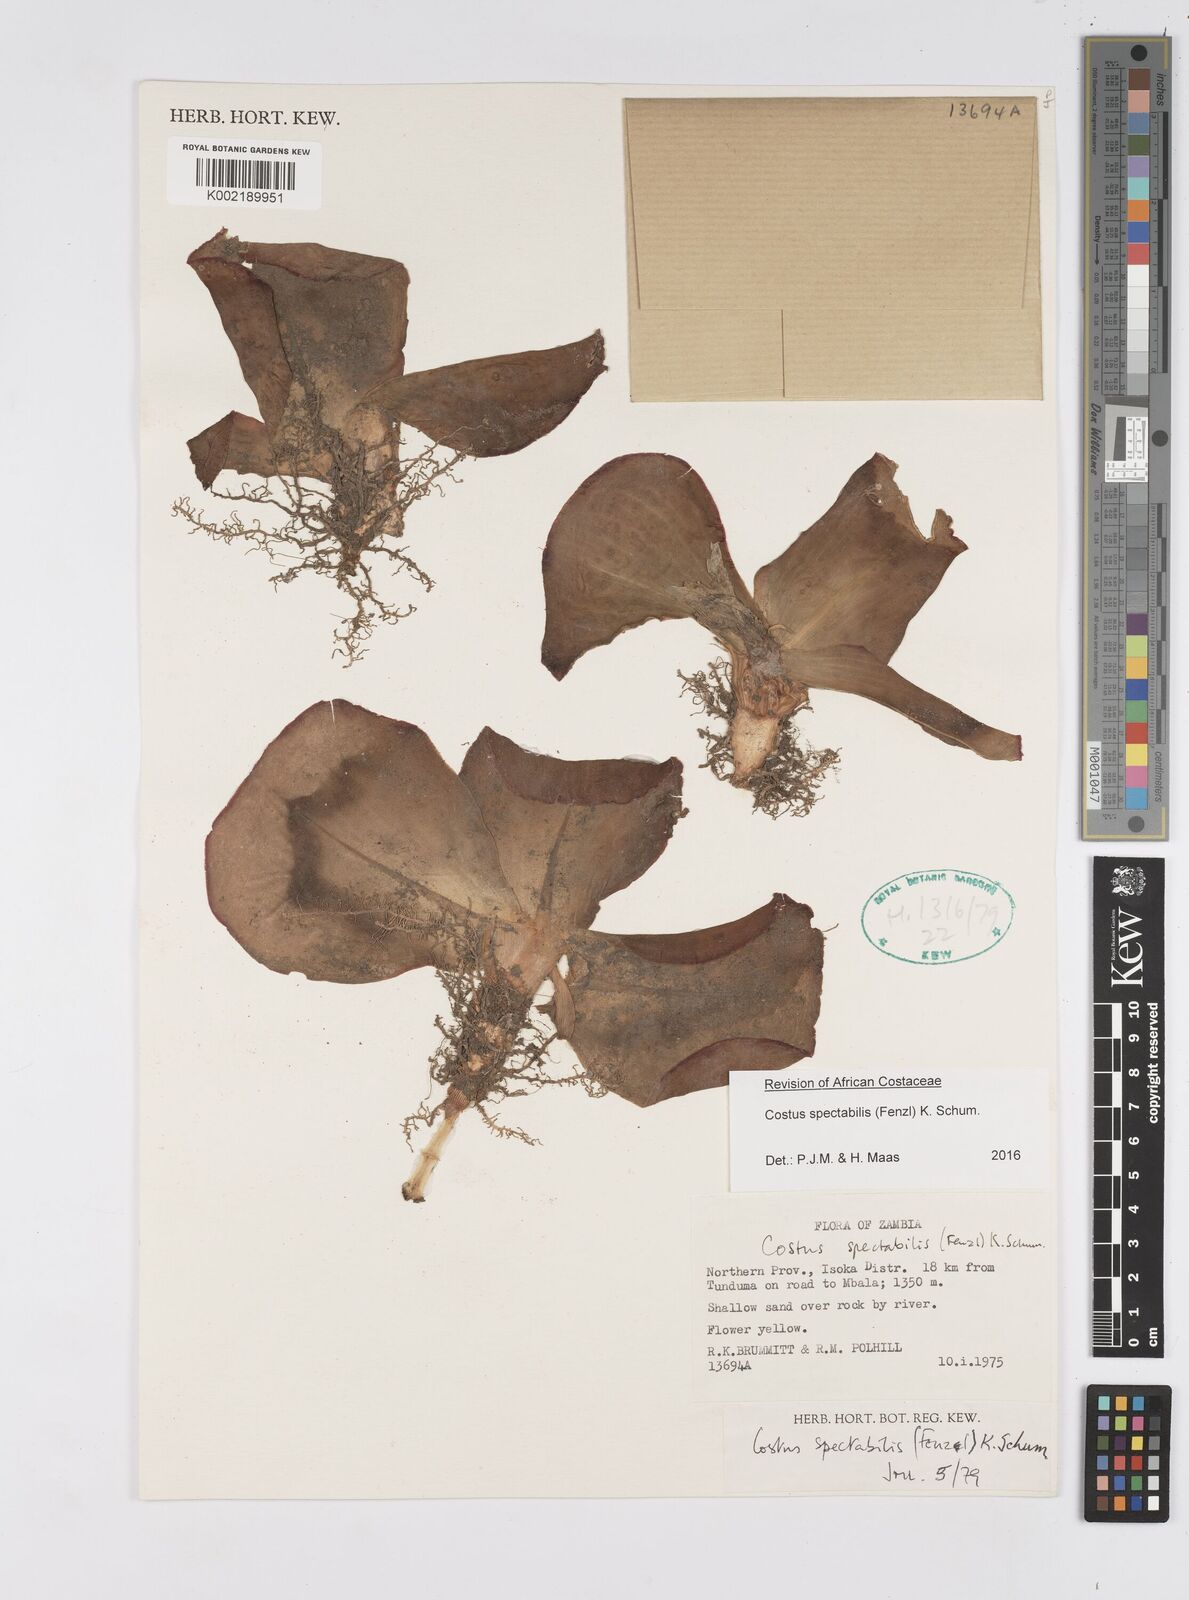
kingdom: Plantae
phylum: Tracheophyta
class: Liliopsida
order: Zingiberales
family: Costaceae
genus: Costus
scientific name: Costus spectabilis
